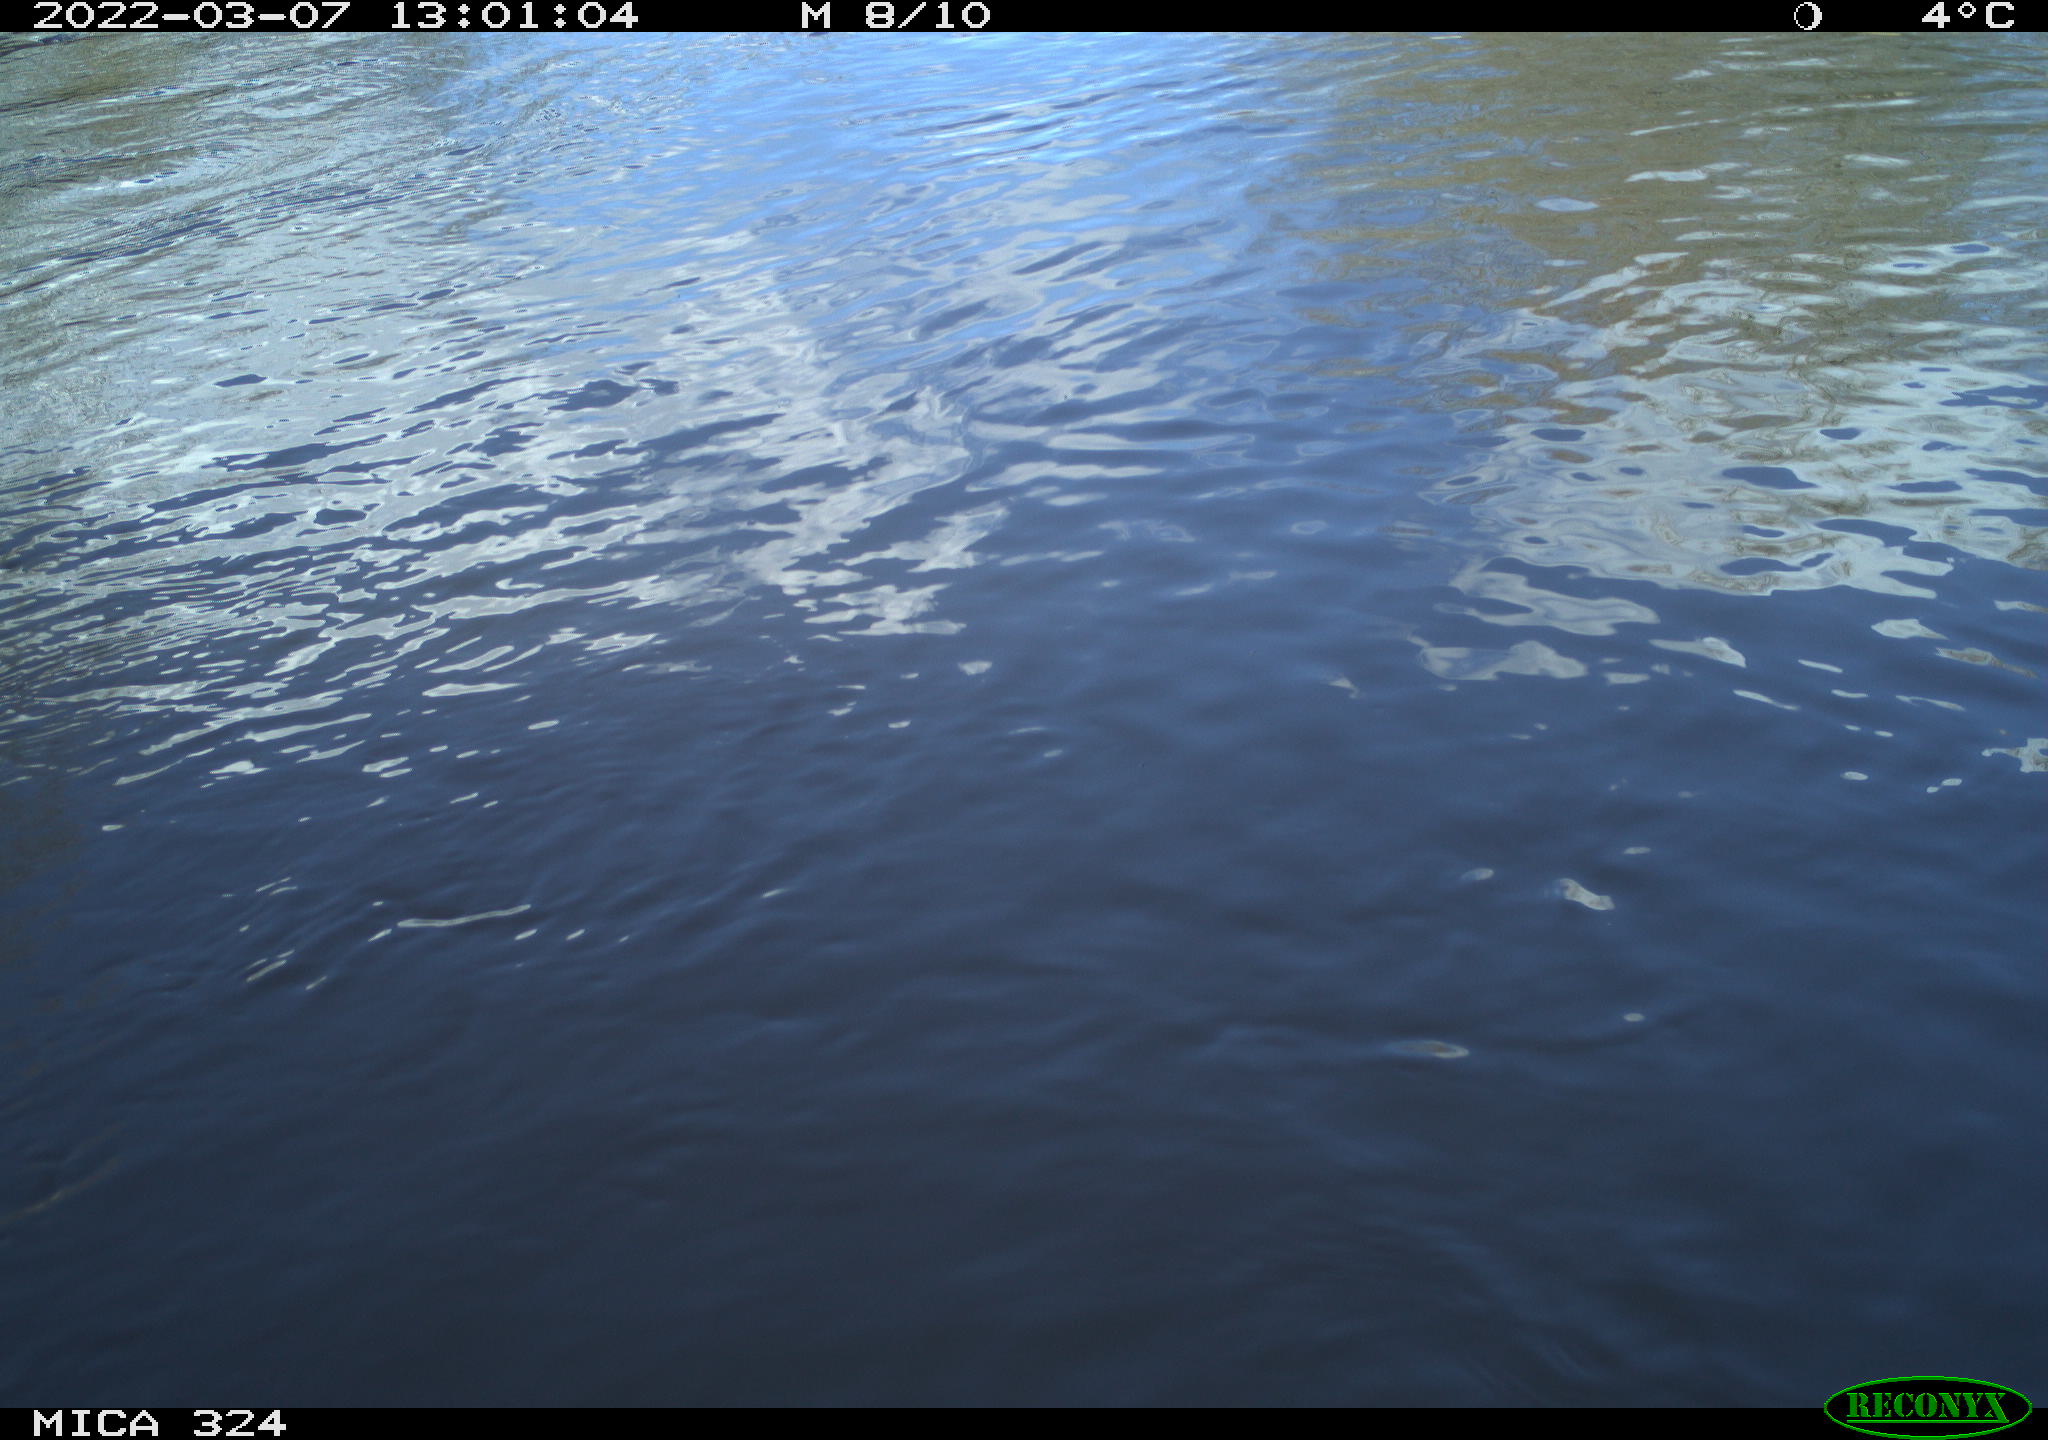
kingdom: Animalia
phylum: Chordata
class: Aves
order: Anseriformes
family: Anatidae
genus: Anas
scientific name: Anas platyrhynchos
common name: Mallard
